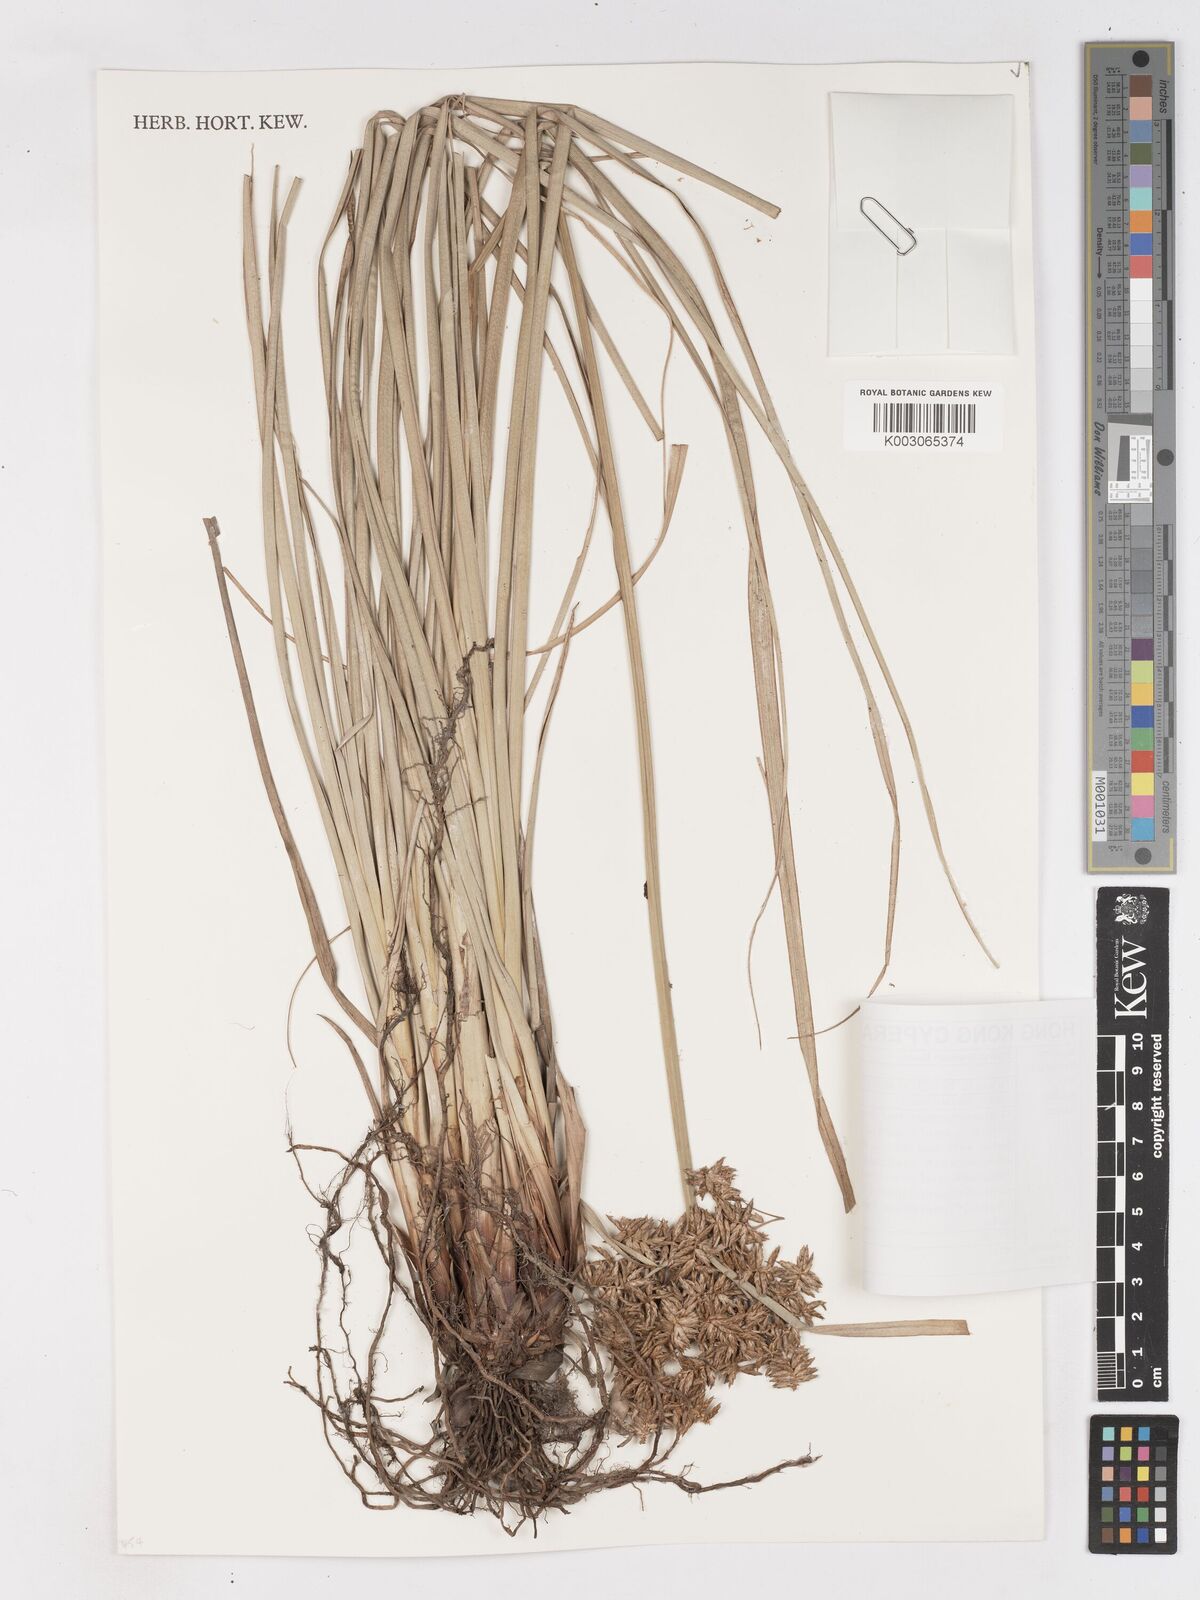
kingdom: Plantae
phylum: Tracheophyta
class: Liliopsida
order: Poales
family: Cyperaceae
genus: Cyperus
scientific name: Cyperus javanicus
